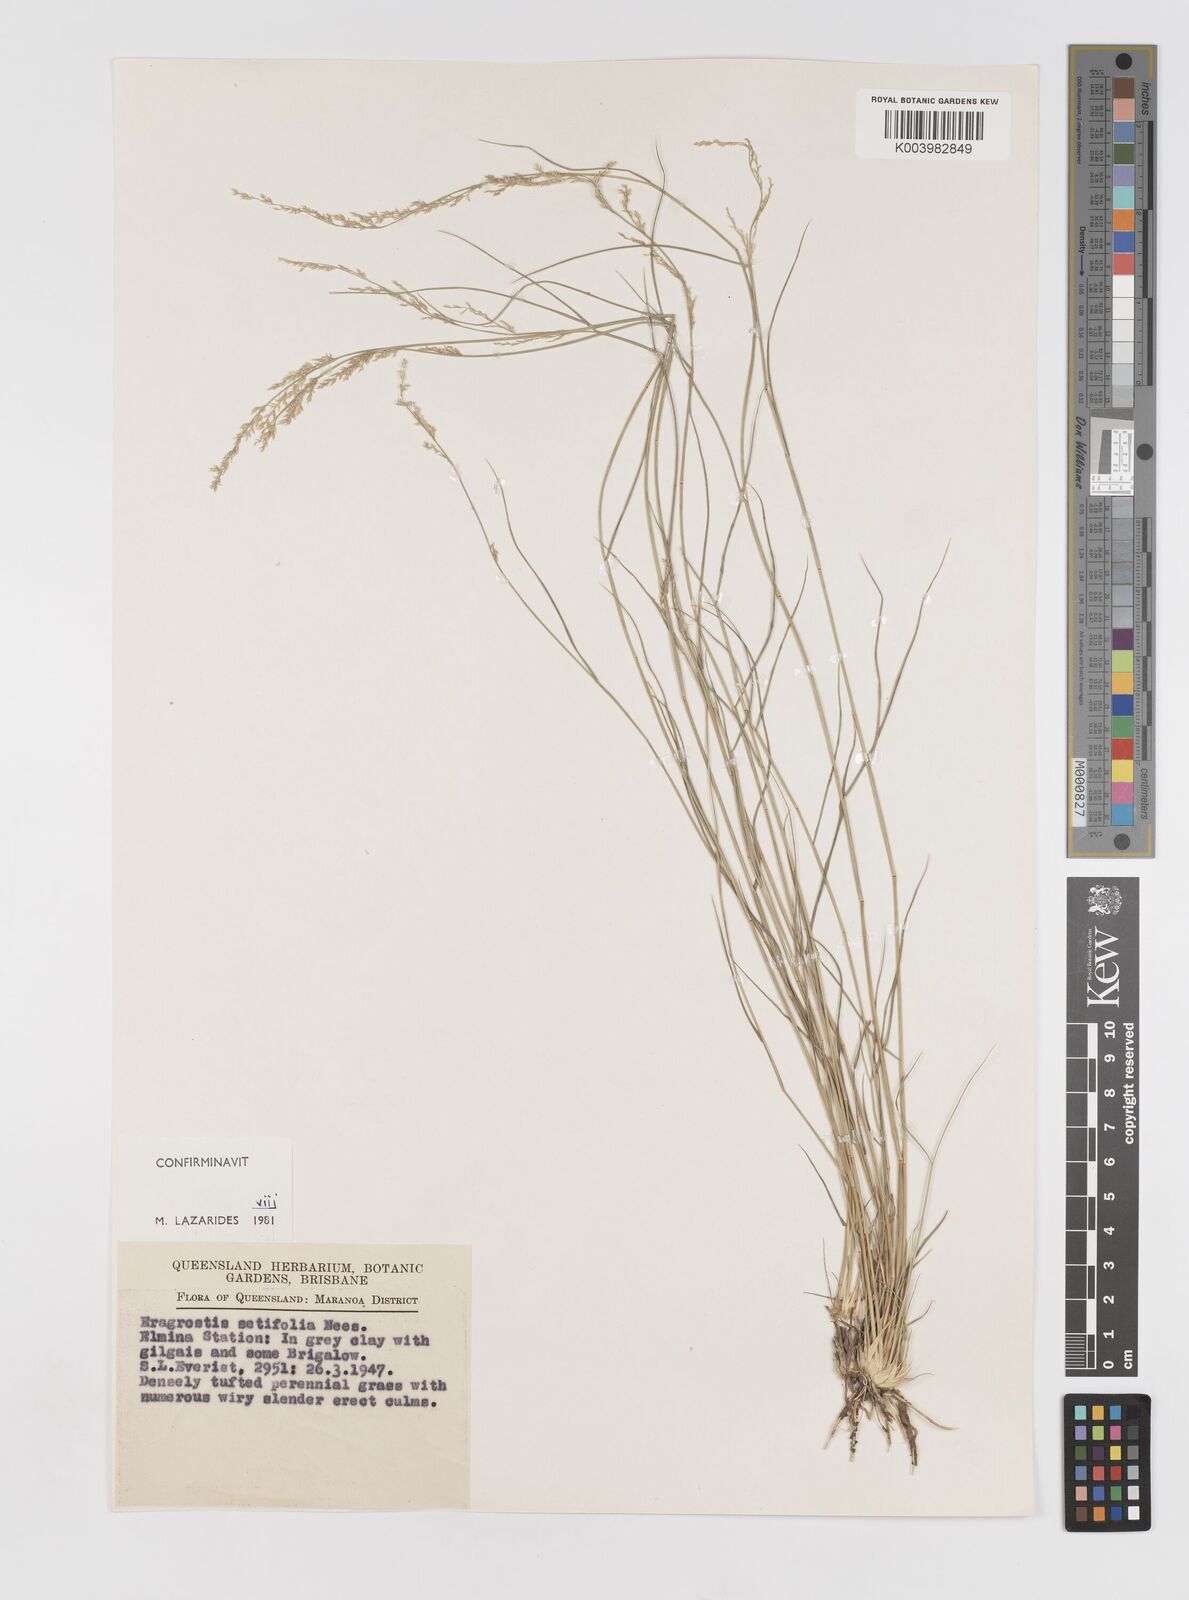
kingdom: Plantae
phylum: Tracheophyta
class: Liliopsida
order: Poales
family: Poaceae
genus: Eragrostis
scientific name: Eragrostis setifolia
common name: Bristleleaf lovegrass
